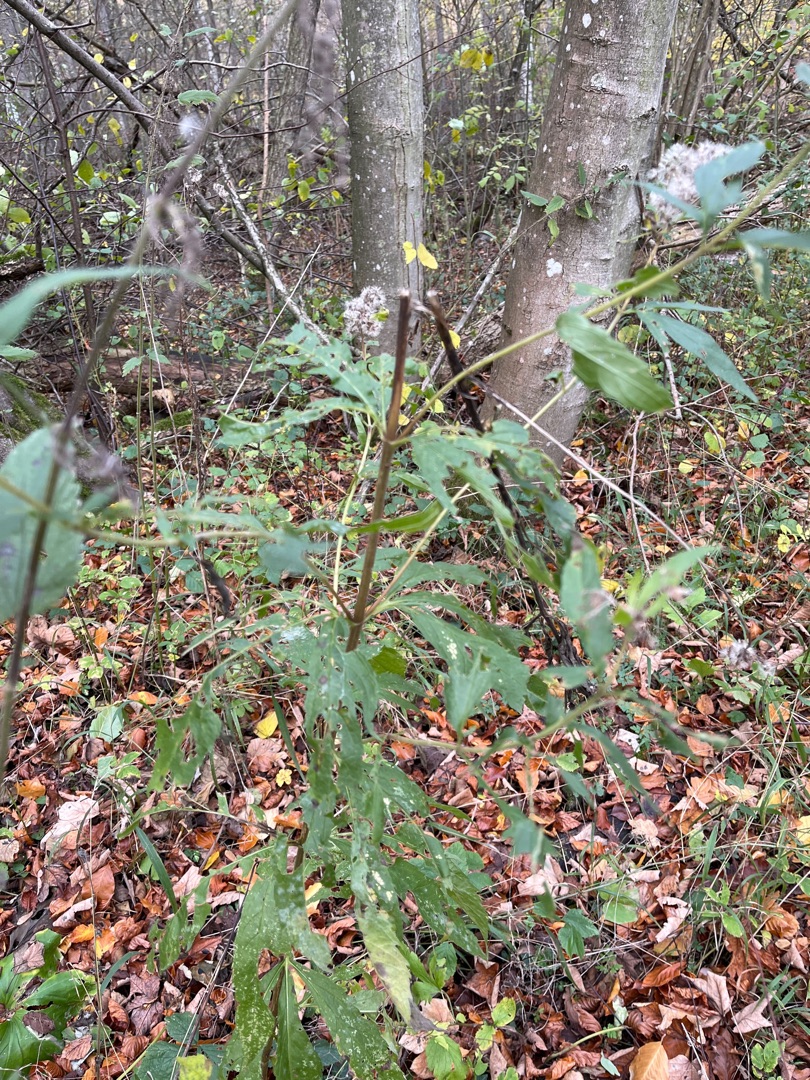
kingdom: Plantae
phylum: Tracheophyta
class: Magnoliopsida
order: Asterales
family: Asteraceae
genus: Eupatorium
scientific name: Eupatorium cannabinum
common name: Hjortetrøst
